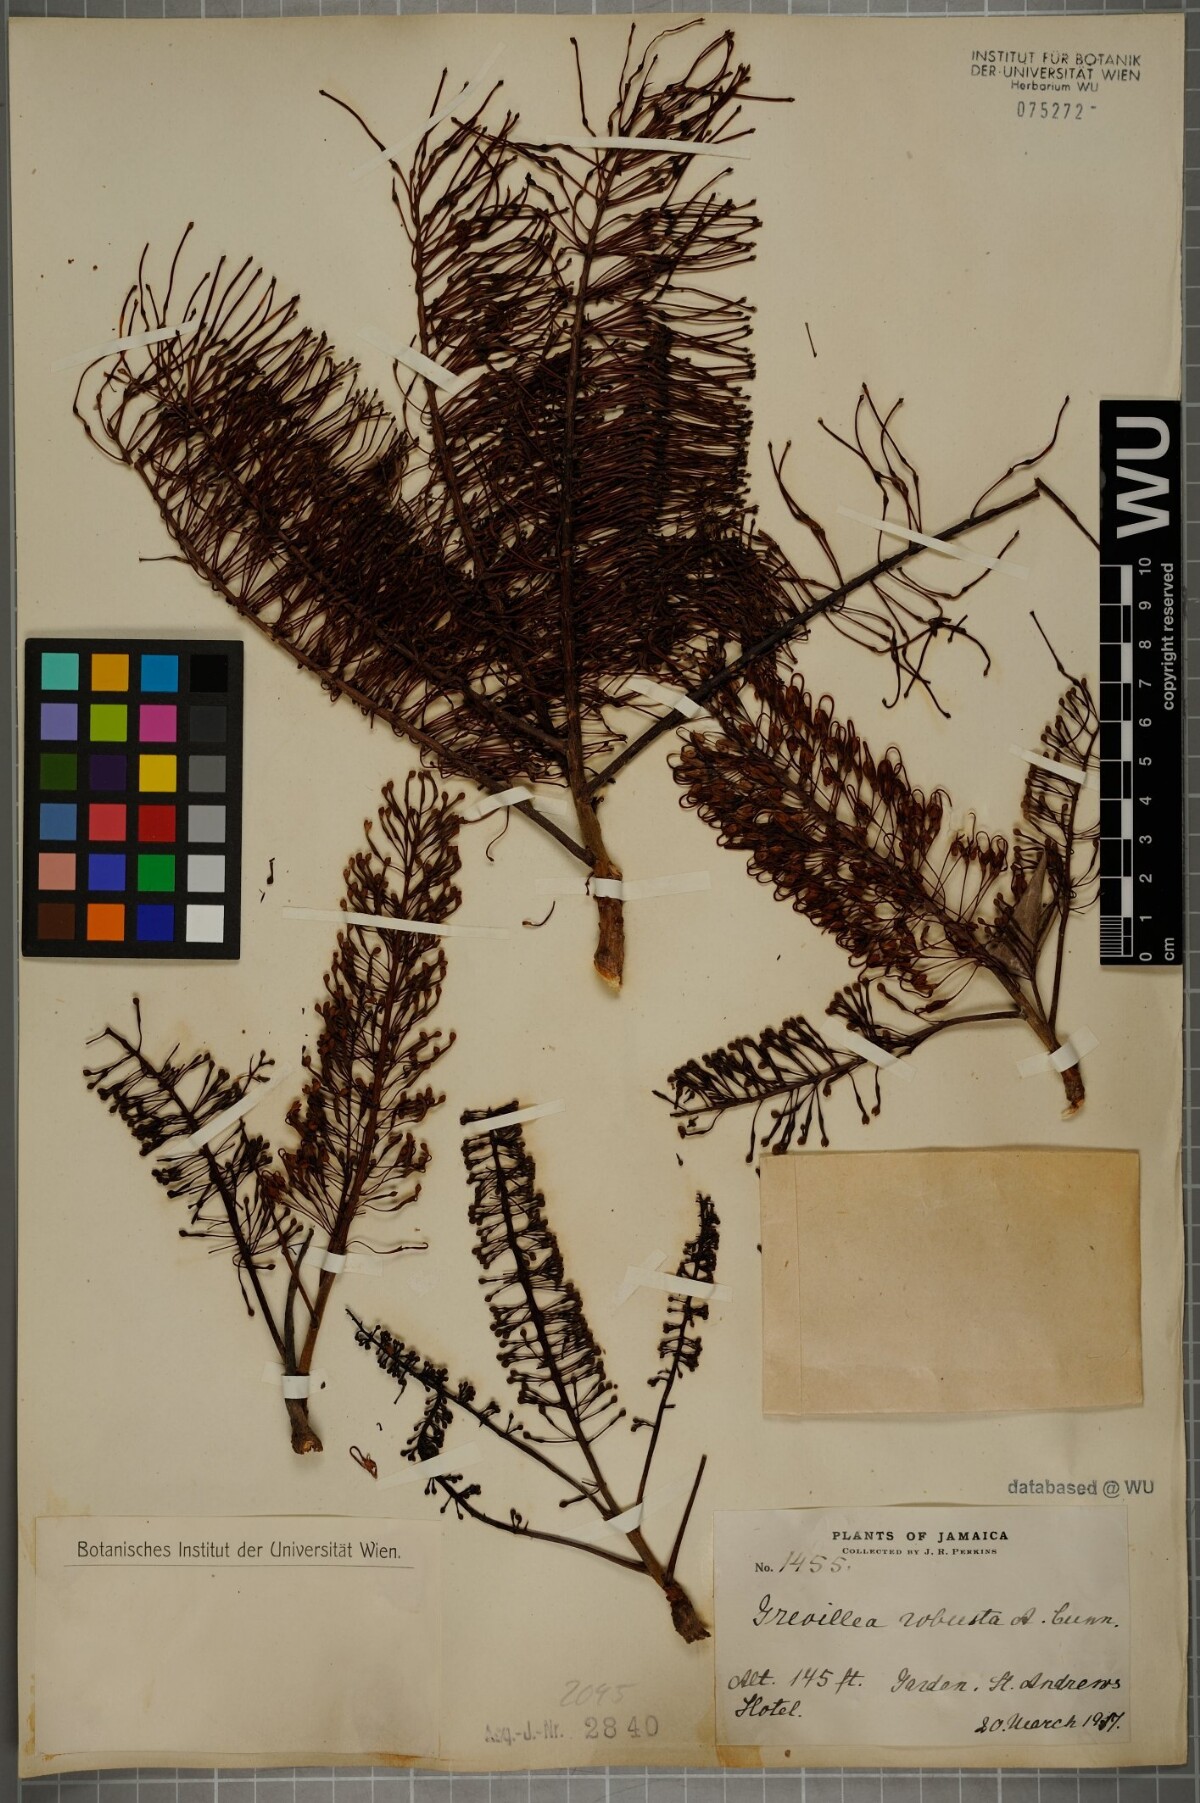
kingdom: Plantae
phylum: Tracheophyta
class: Magnoliopsida
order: Proteales
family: Proteaceae
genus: Grevillea
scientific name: Grevillea robusta
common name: Silkoak
